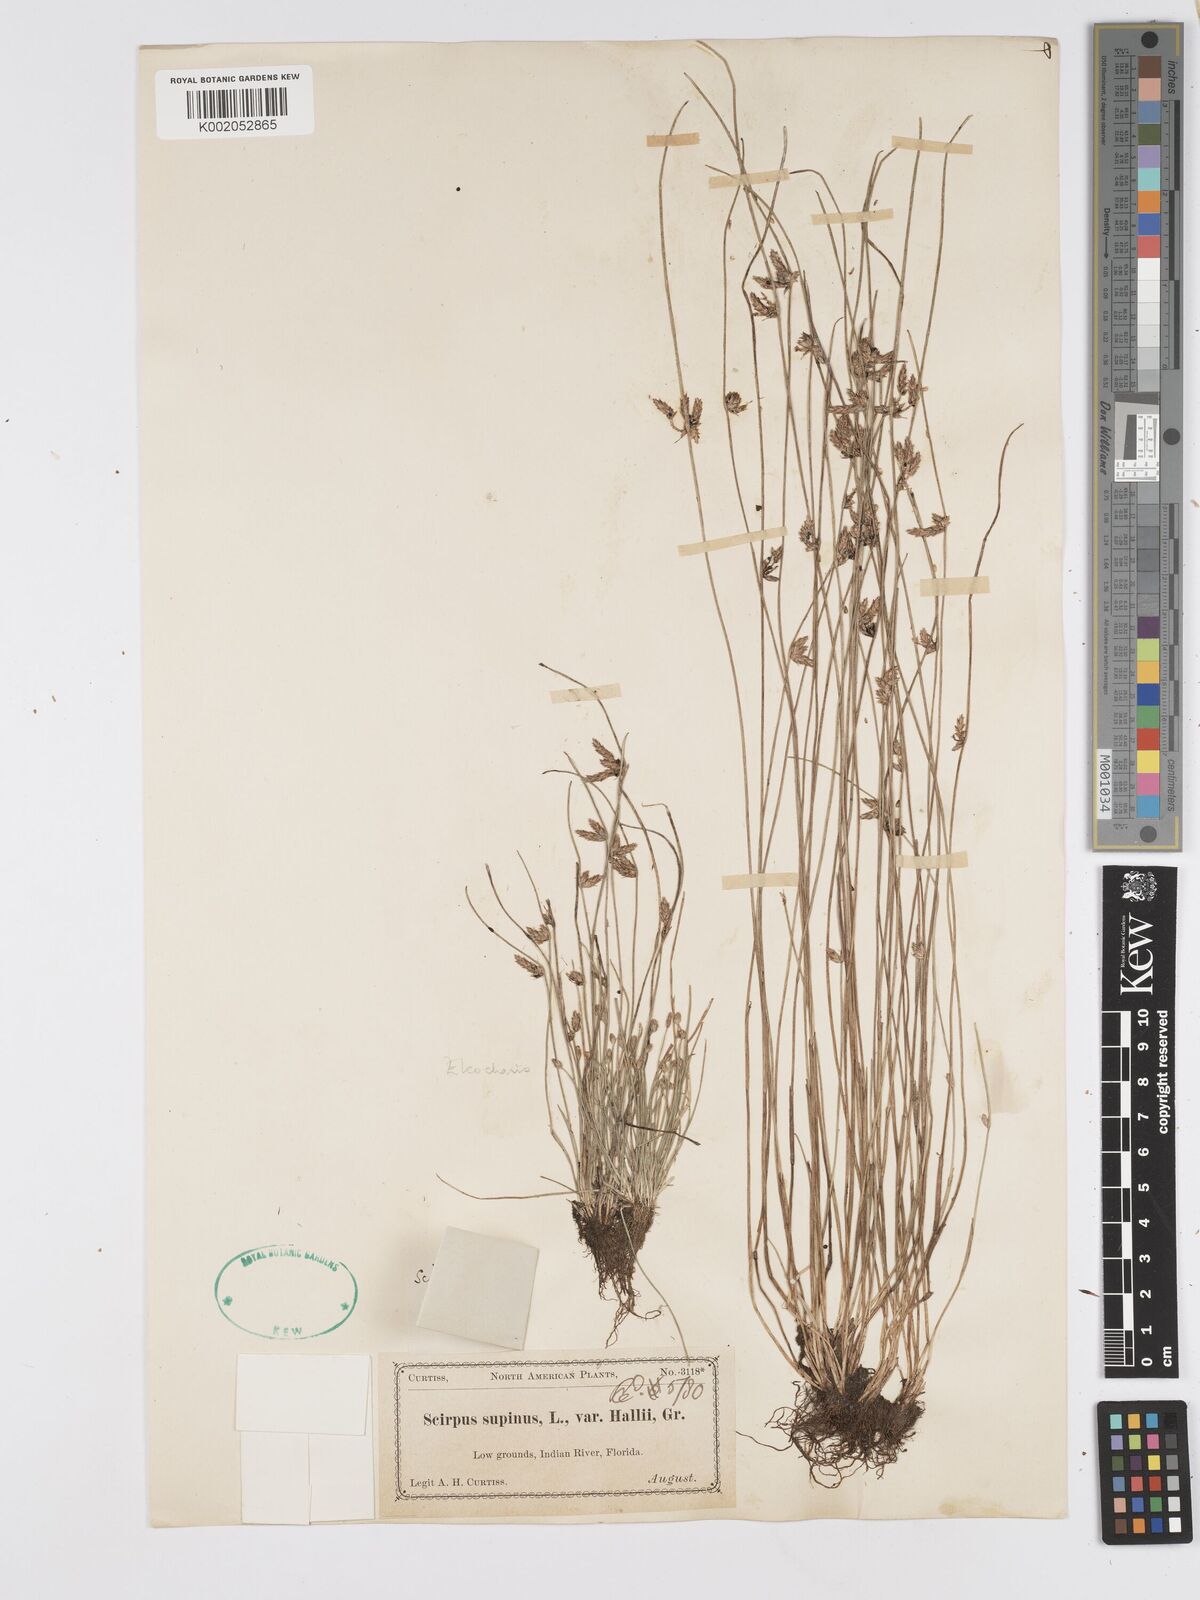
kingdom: Plantae
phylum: Tracheophyta
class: Liliopsida
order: Poales
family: Cyperaceae
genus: Schoenoplectiella
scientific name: Schoenoplectiella hallii
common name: Hall's bullrush
